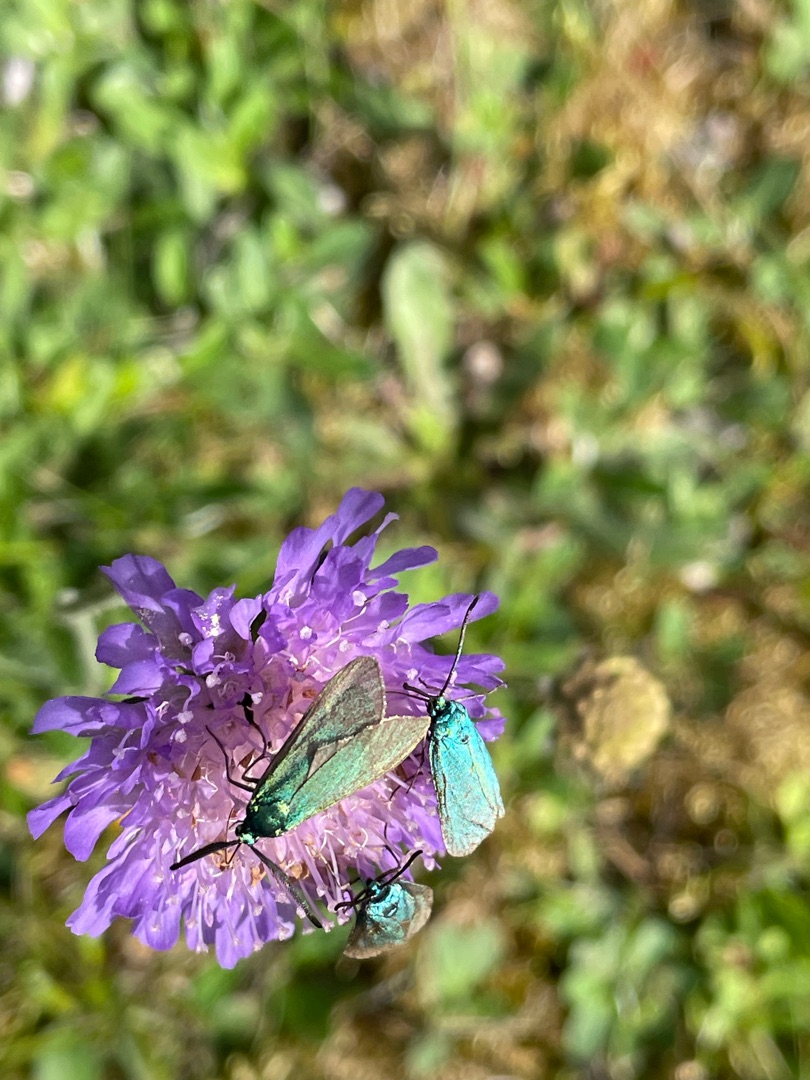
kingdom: Animalia
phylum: Arthropoda
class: Insecta
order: Lepidoptera
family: Zygaenidae
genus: Adscita
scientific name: Adscita statices
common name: Metalvinge
